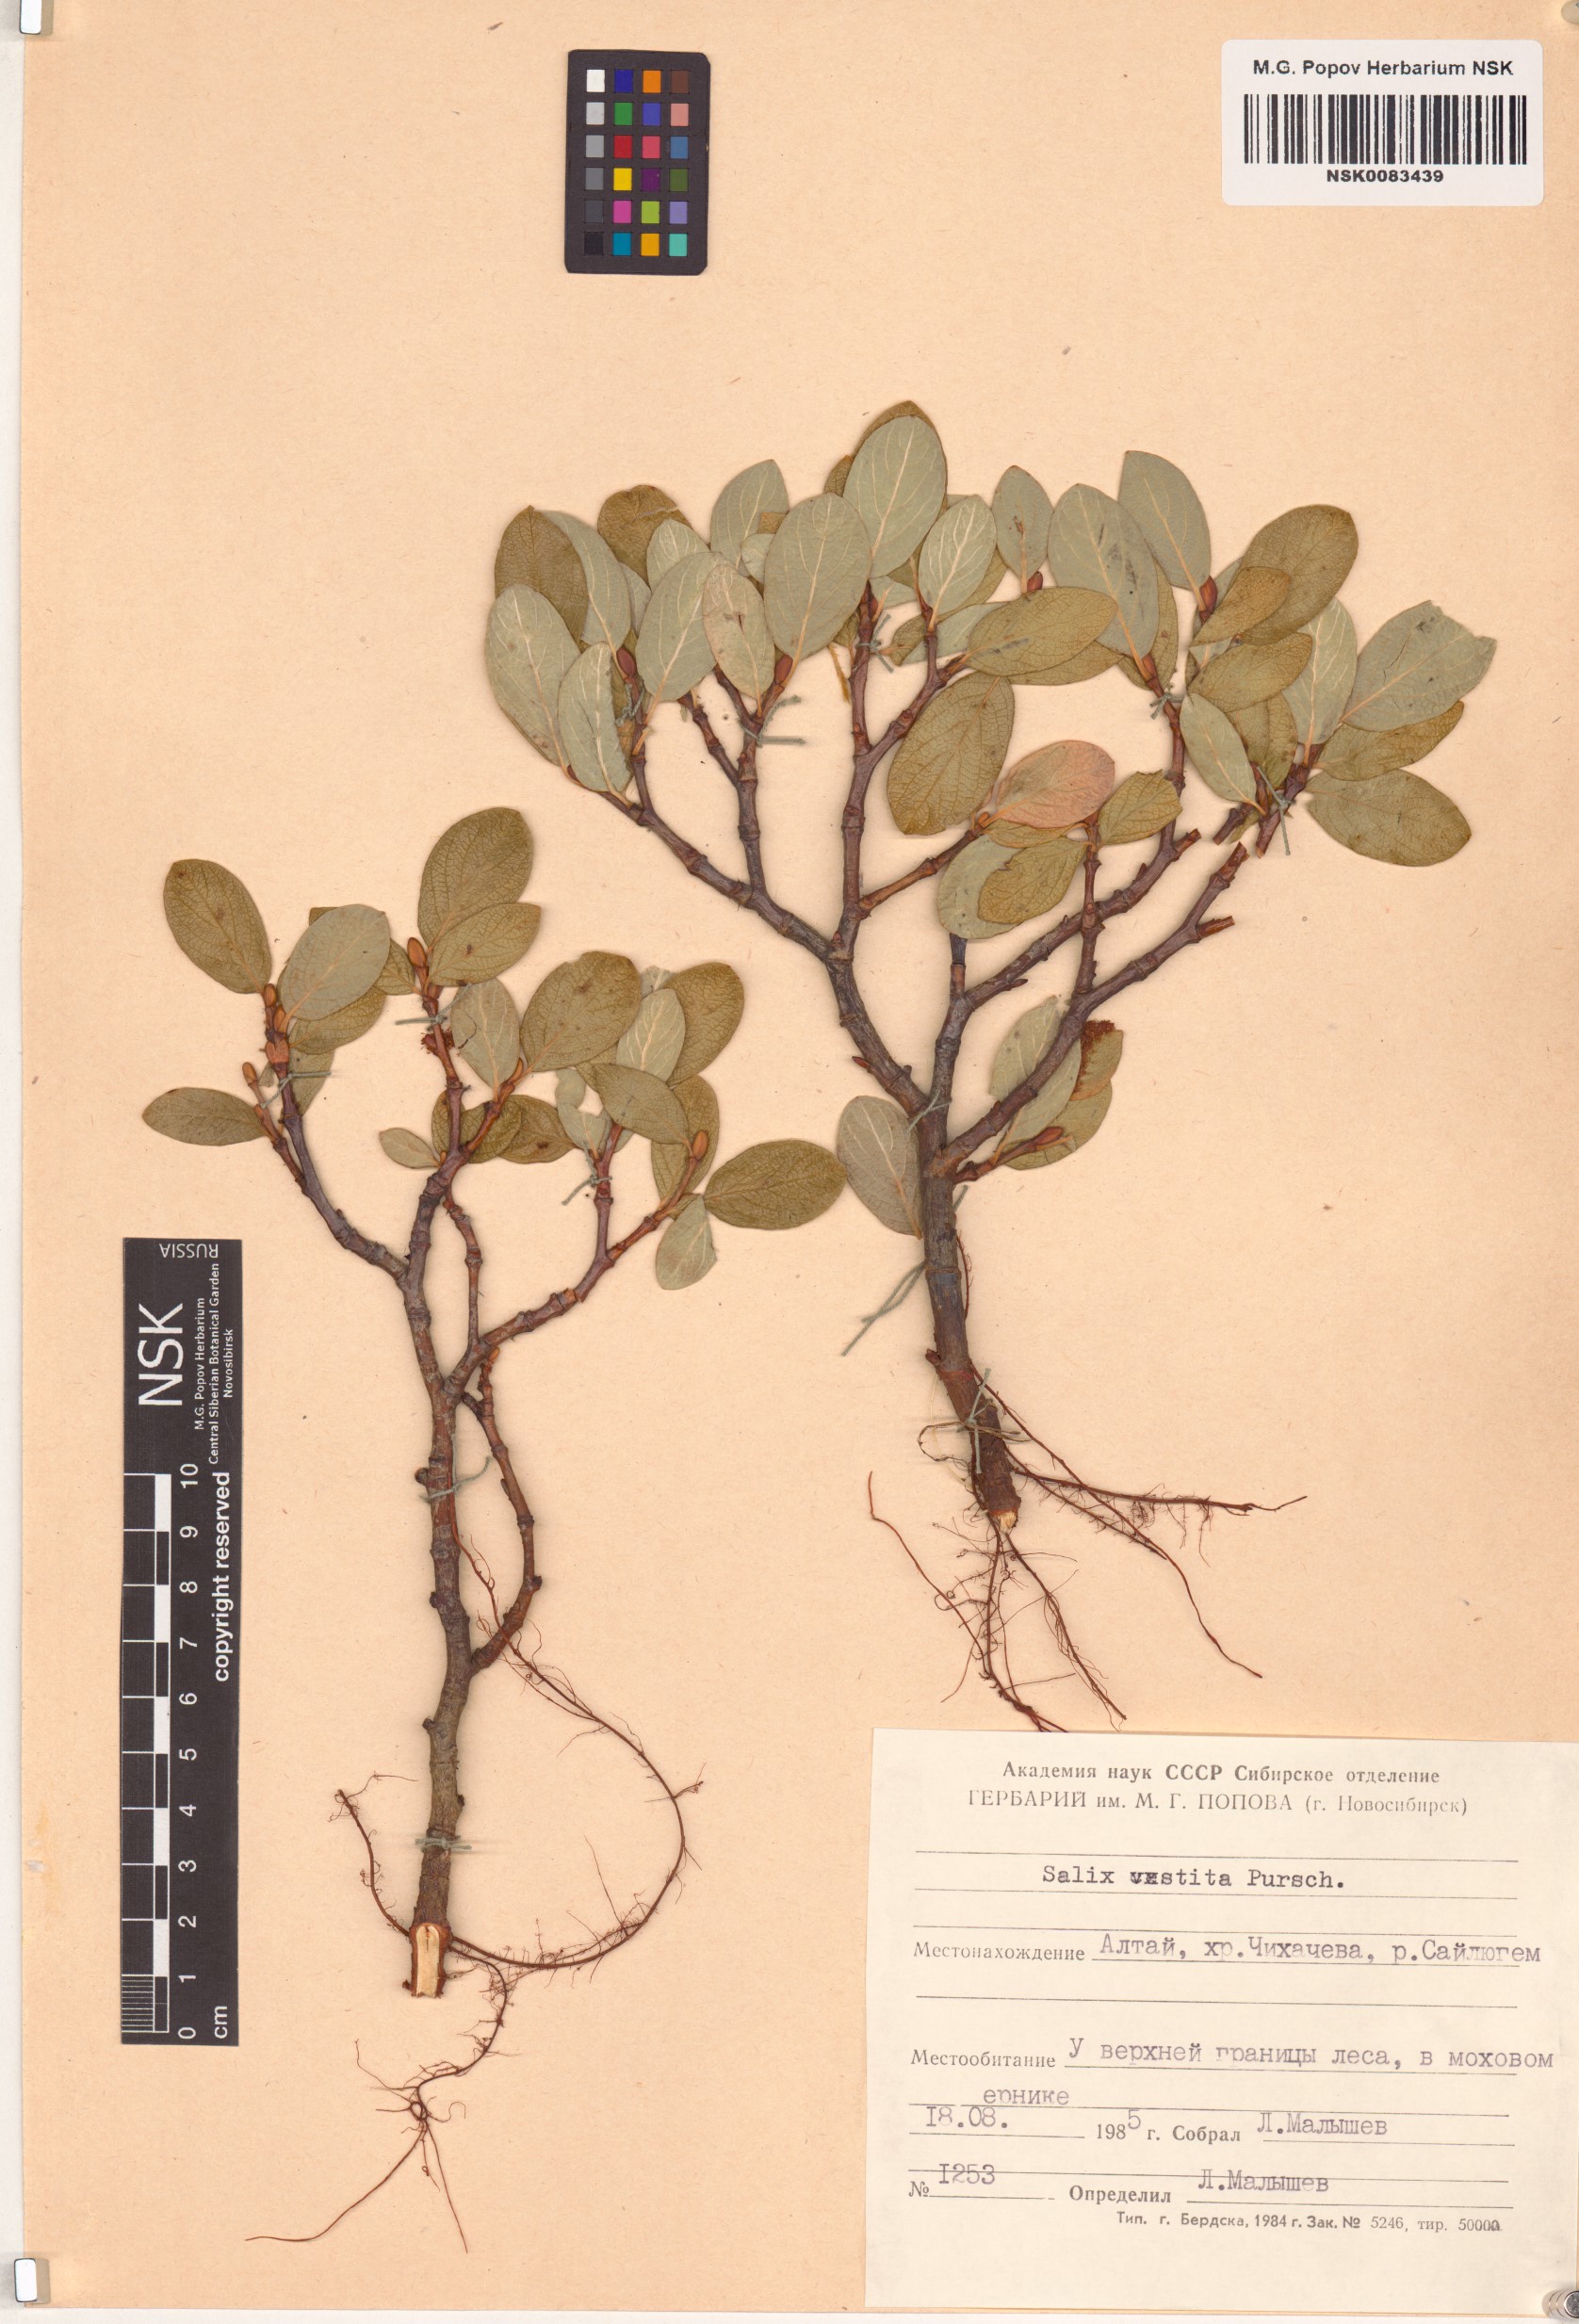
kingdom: Plantae
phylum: Tracheophyta
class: Magnoliopsida
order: Malpighiales
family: Salicaceae
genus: Salix
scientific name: Salix vestita
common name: Hairy willow
